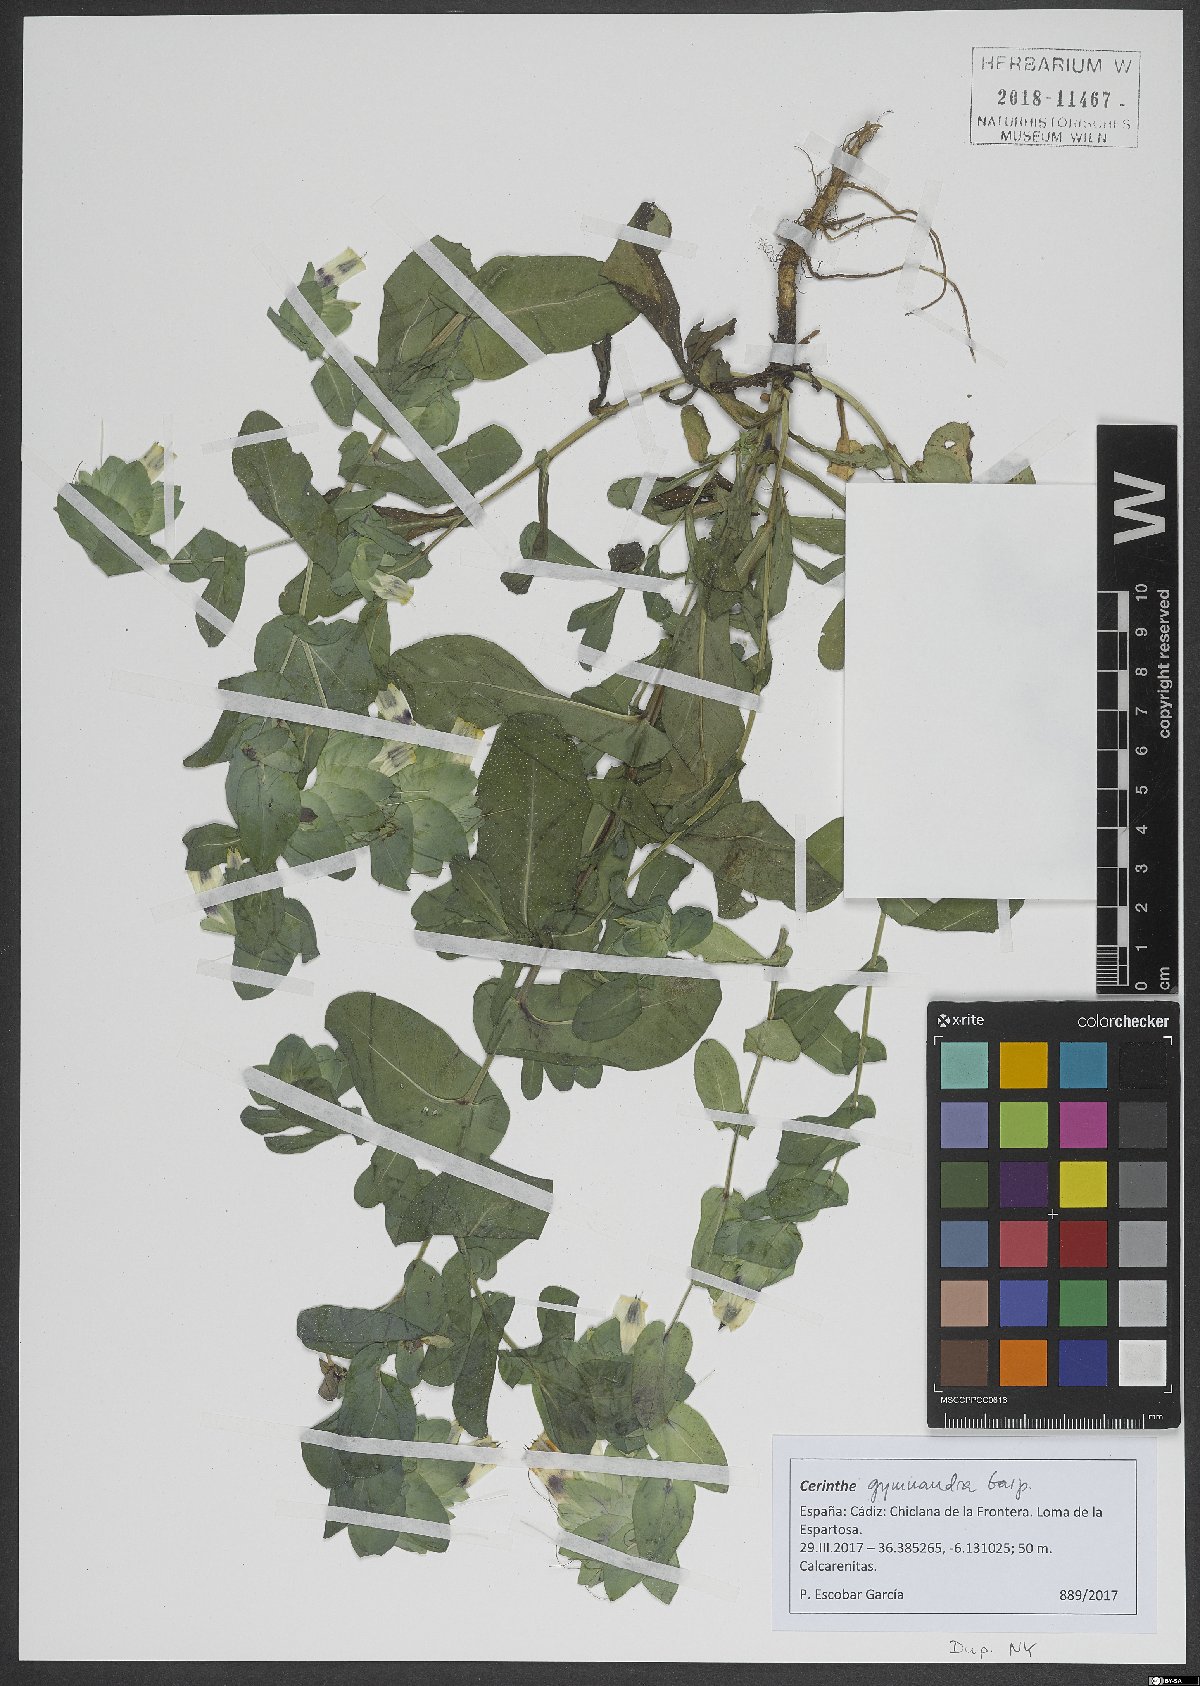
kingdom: Plantae
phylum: Tracheophyta
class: Magnoliopsida
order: Boraginales
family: Boraginaceae
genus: Cerinthe
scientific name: Cerinthe major
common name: Greater honeywort
